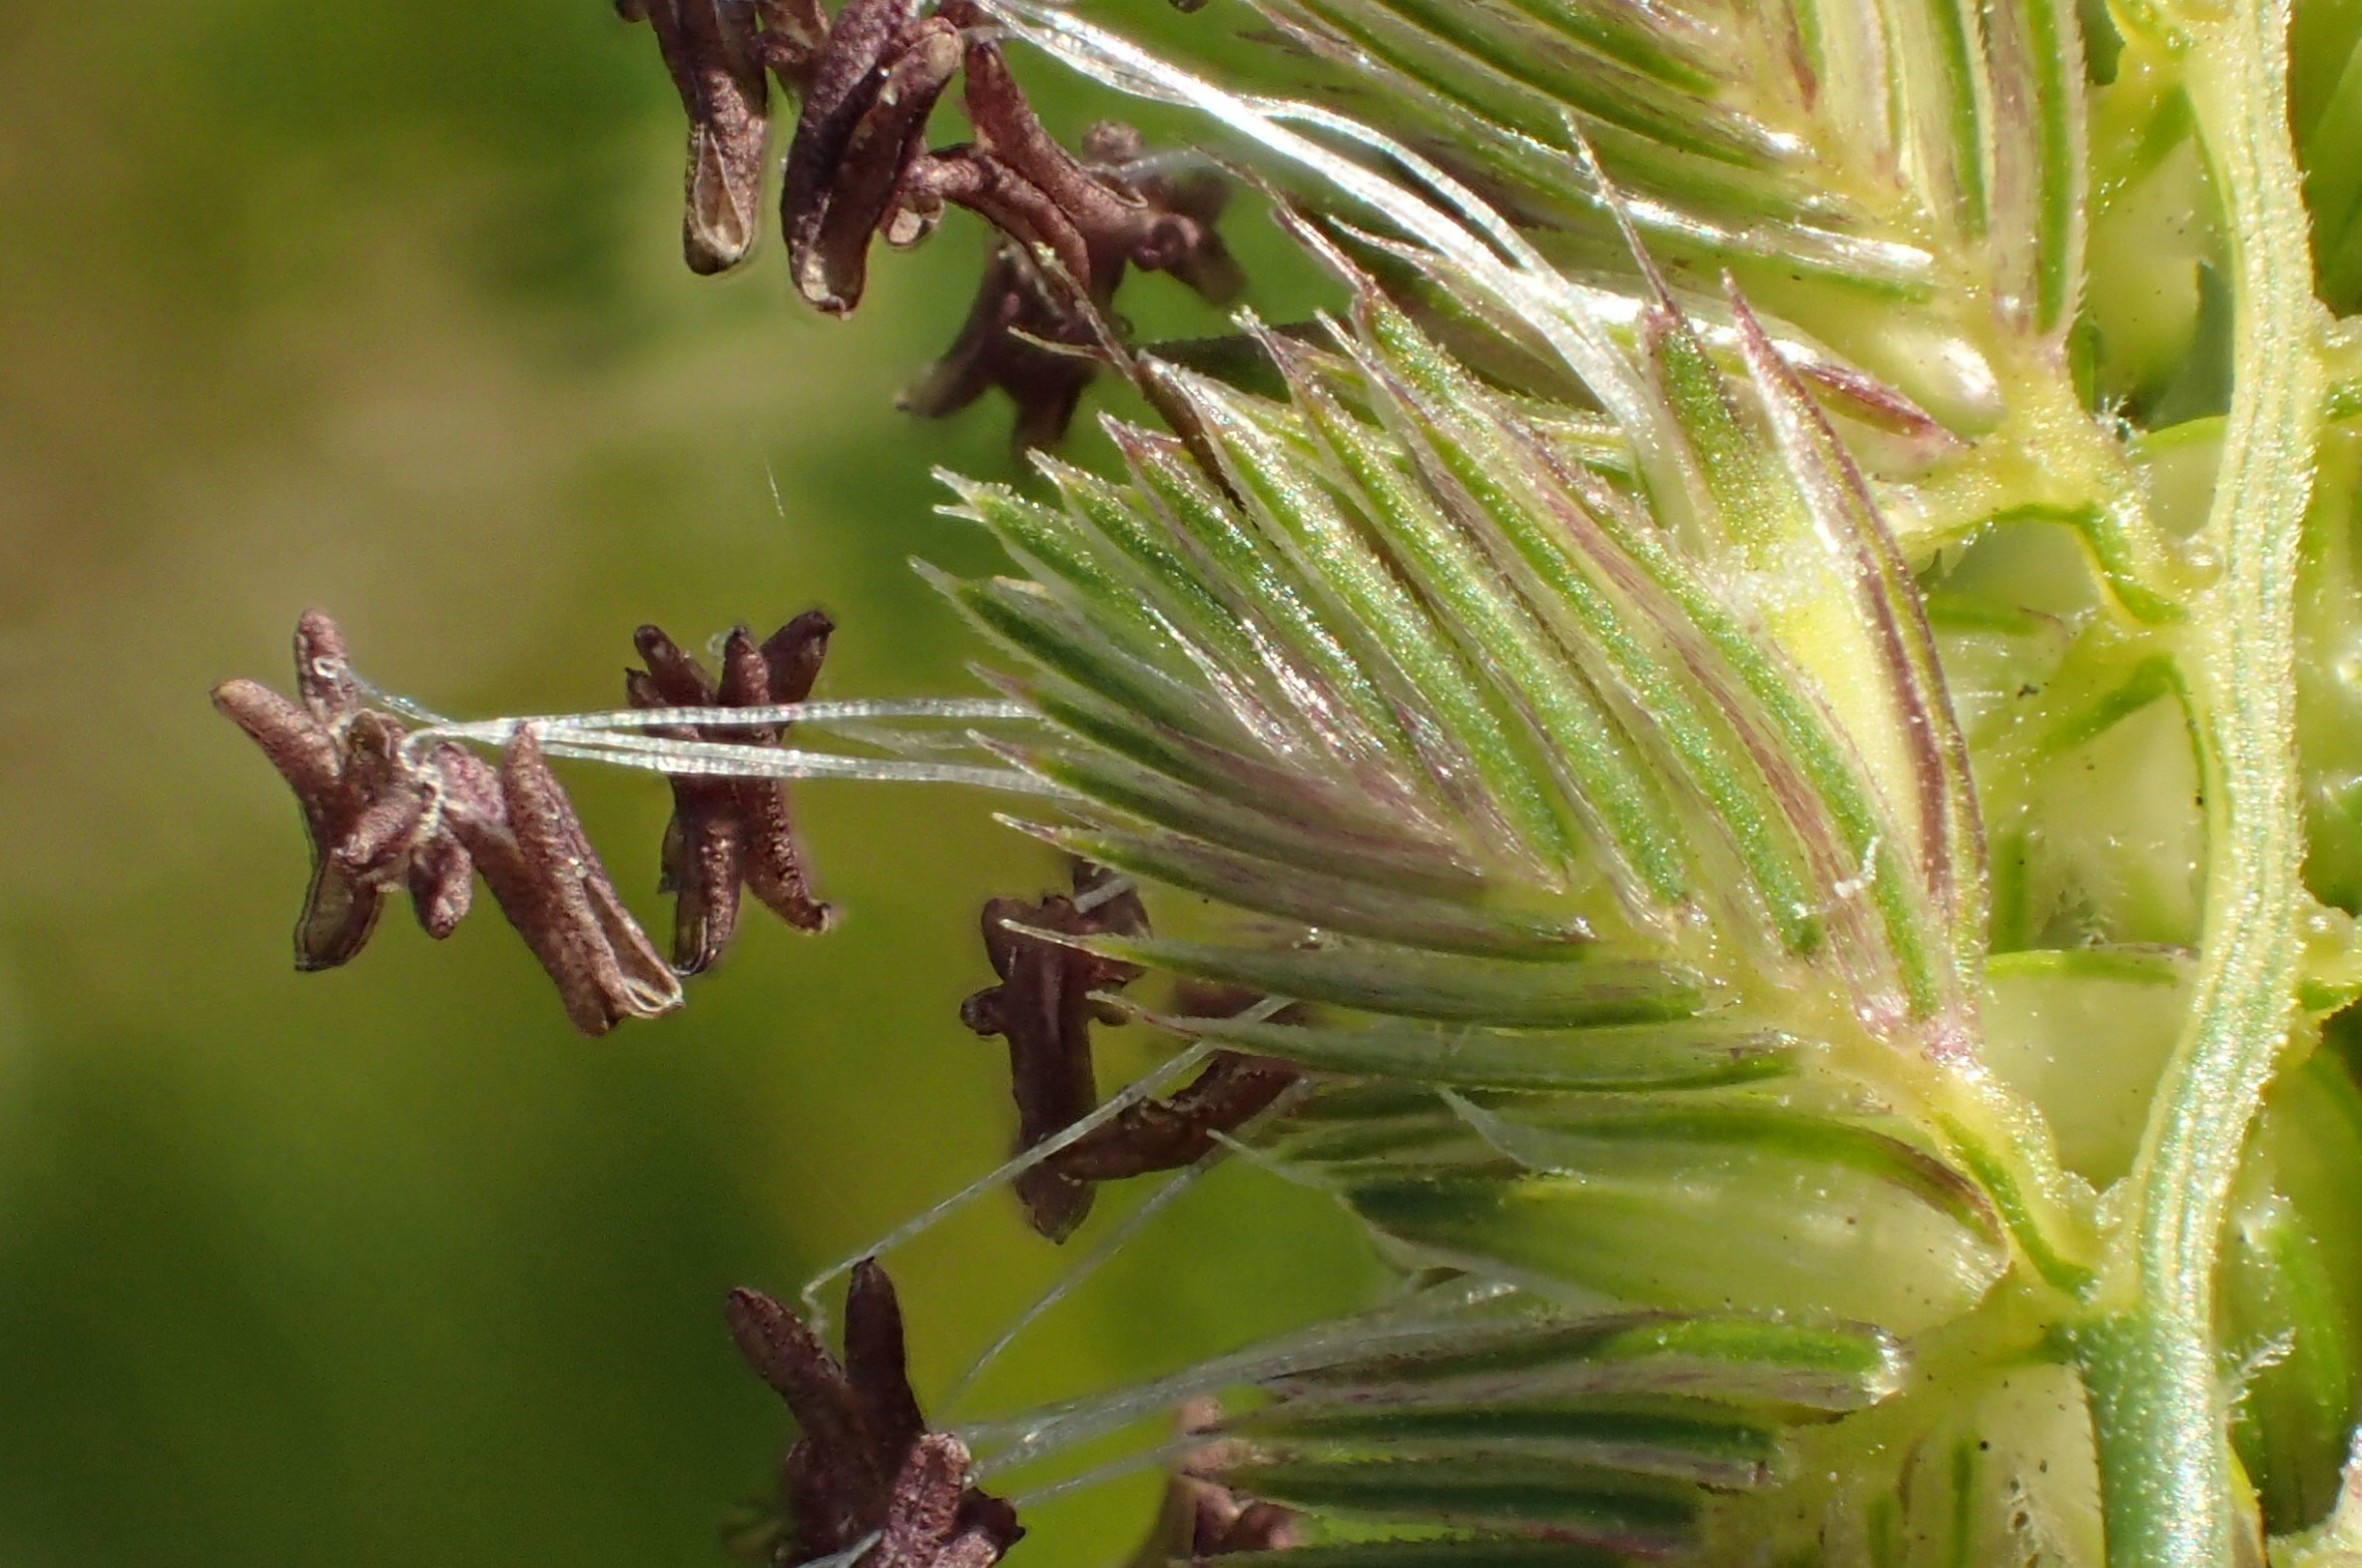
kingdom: Plantae
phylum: Tracheophyta
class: Liliopsida
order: Poales
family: Poaceae
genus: Cynosurus
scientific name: Cynosurus cristatus
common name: Kamgræs
